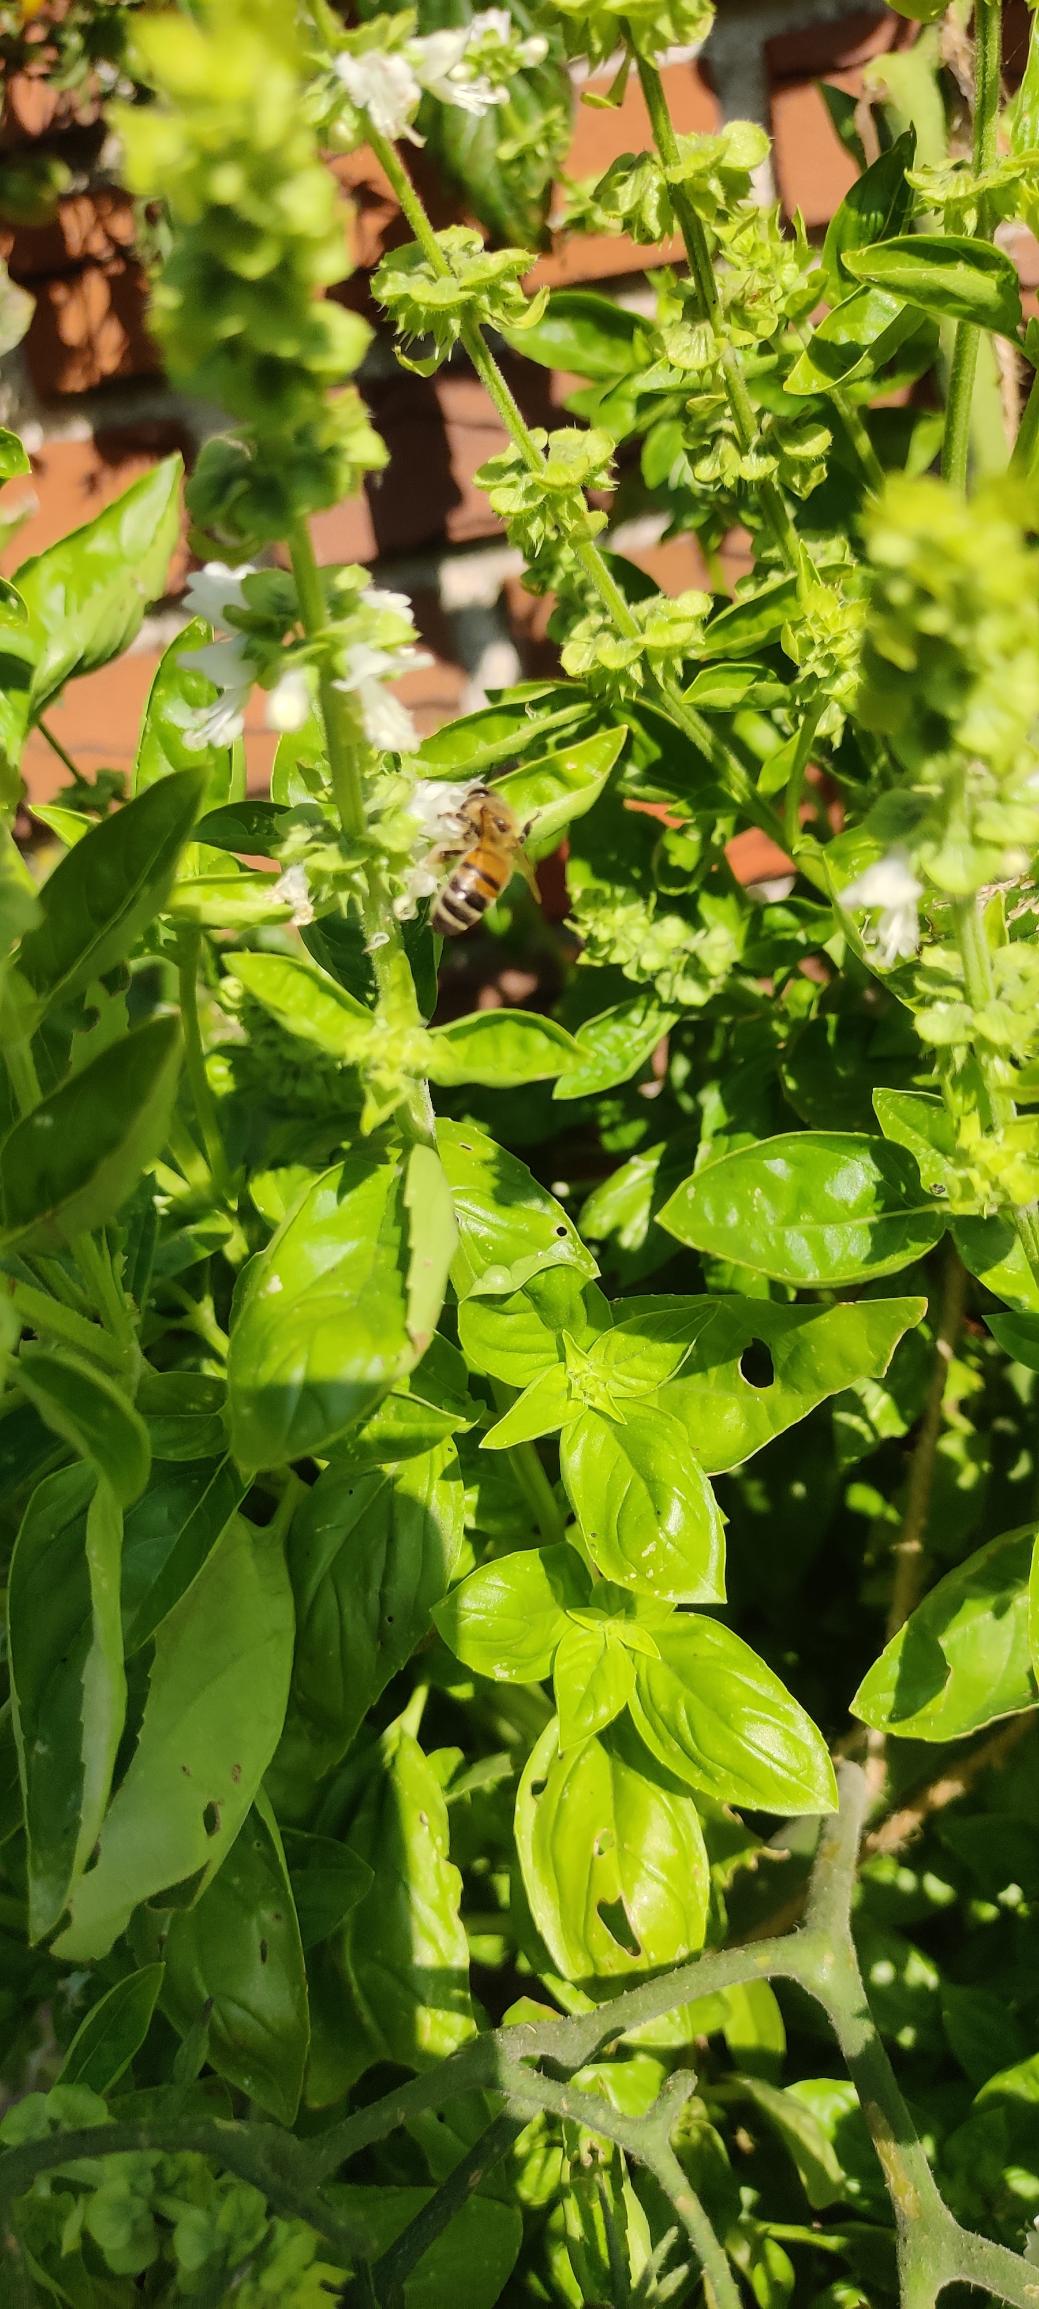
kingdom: Animalia
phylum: Arthropoda
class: Insecta
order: Hymenoptera
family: Apidae
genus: Apis
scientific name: Apis mellifera
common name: Honningbi
